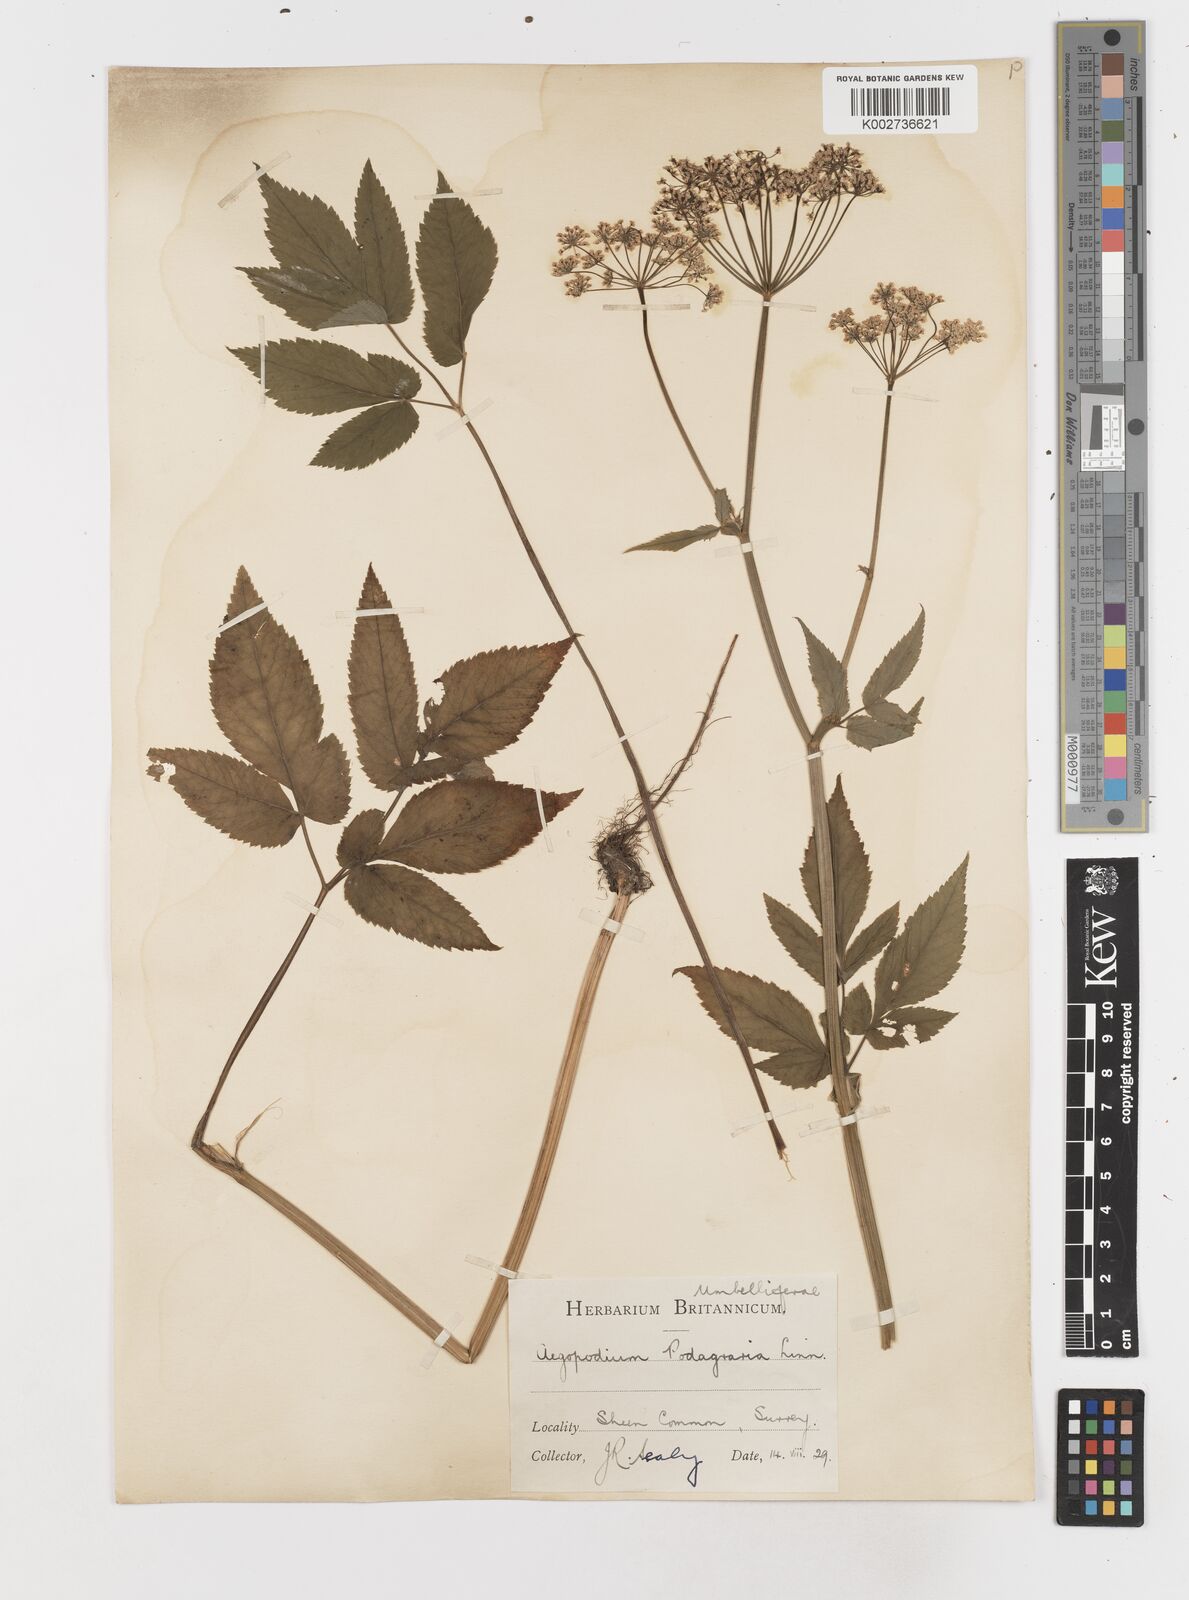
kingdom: Plantae
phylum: Tracheophyta
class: Magnoliopsida
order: Apiales
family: Apiaceae
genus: Aegopodium
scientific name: Aegopodium podagraria
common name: Ground-elder
